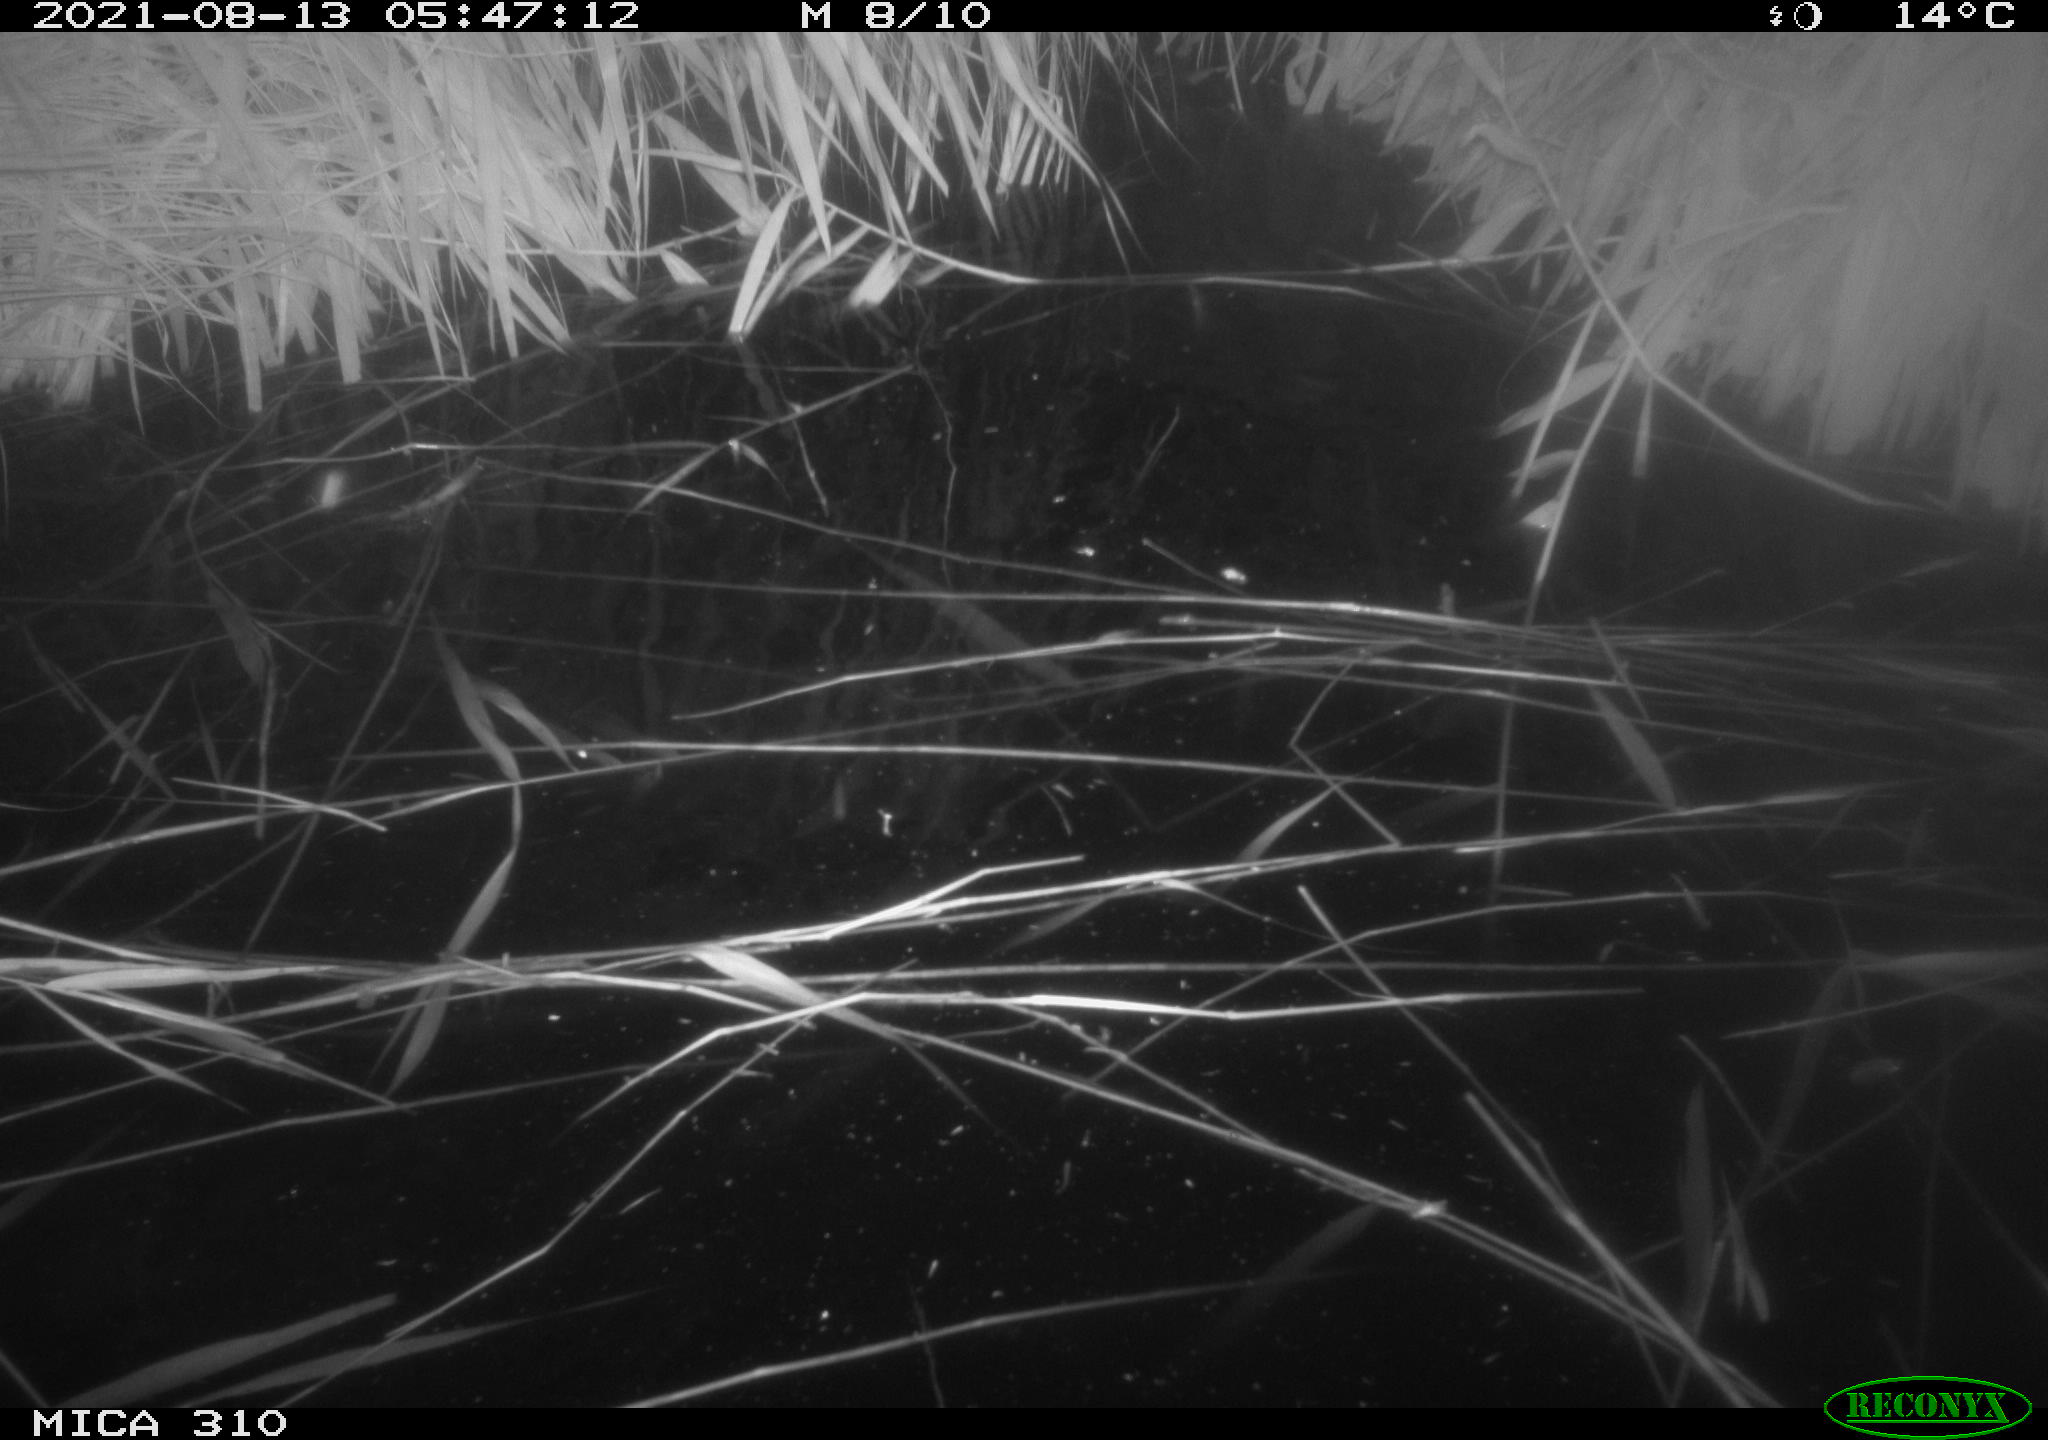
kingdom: Animalia
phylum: Chordata
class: Aves
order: Anseriformes
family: Anatidae
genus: Anas
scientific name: Anas platyrhynchos
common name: Mallard
